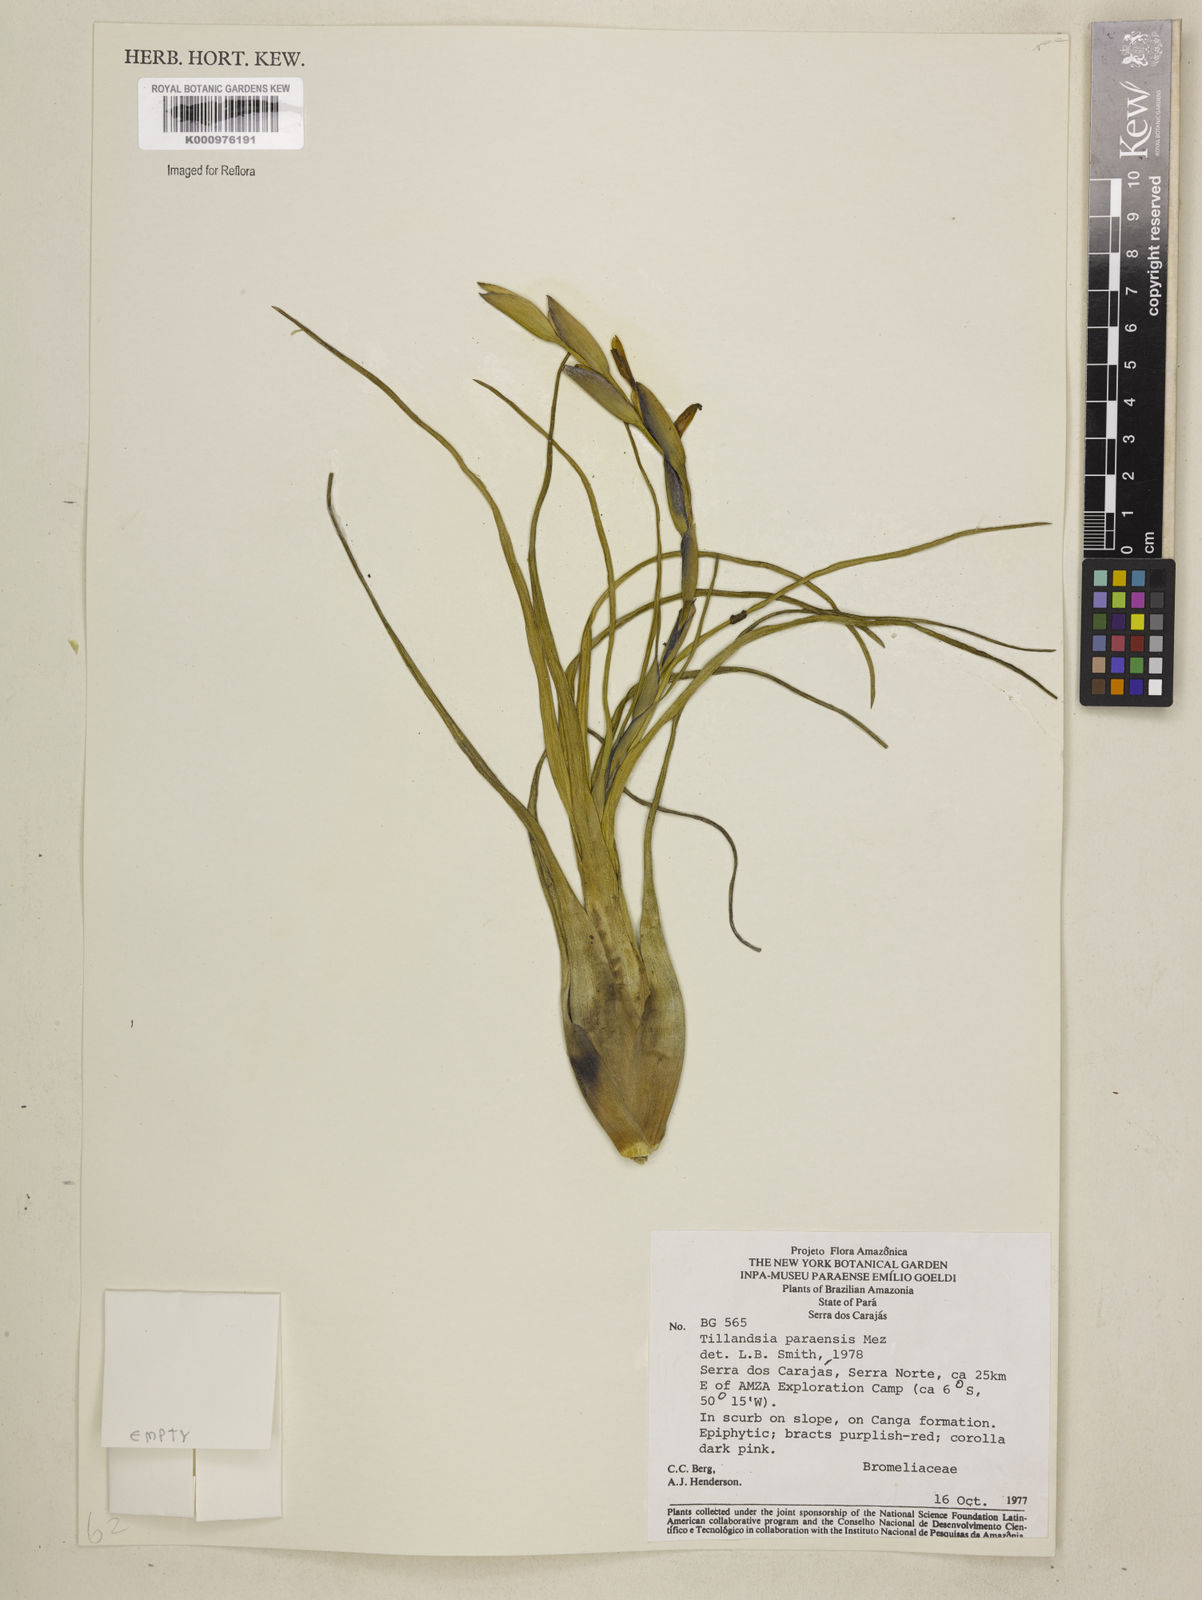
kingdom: Plantae
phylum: Tracheophyta
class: Liliopsida
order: Poales
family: Bromeliaceae
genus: Tillandsia
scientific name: Tillandsia paraensis
